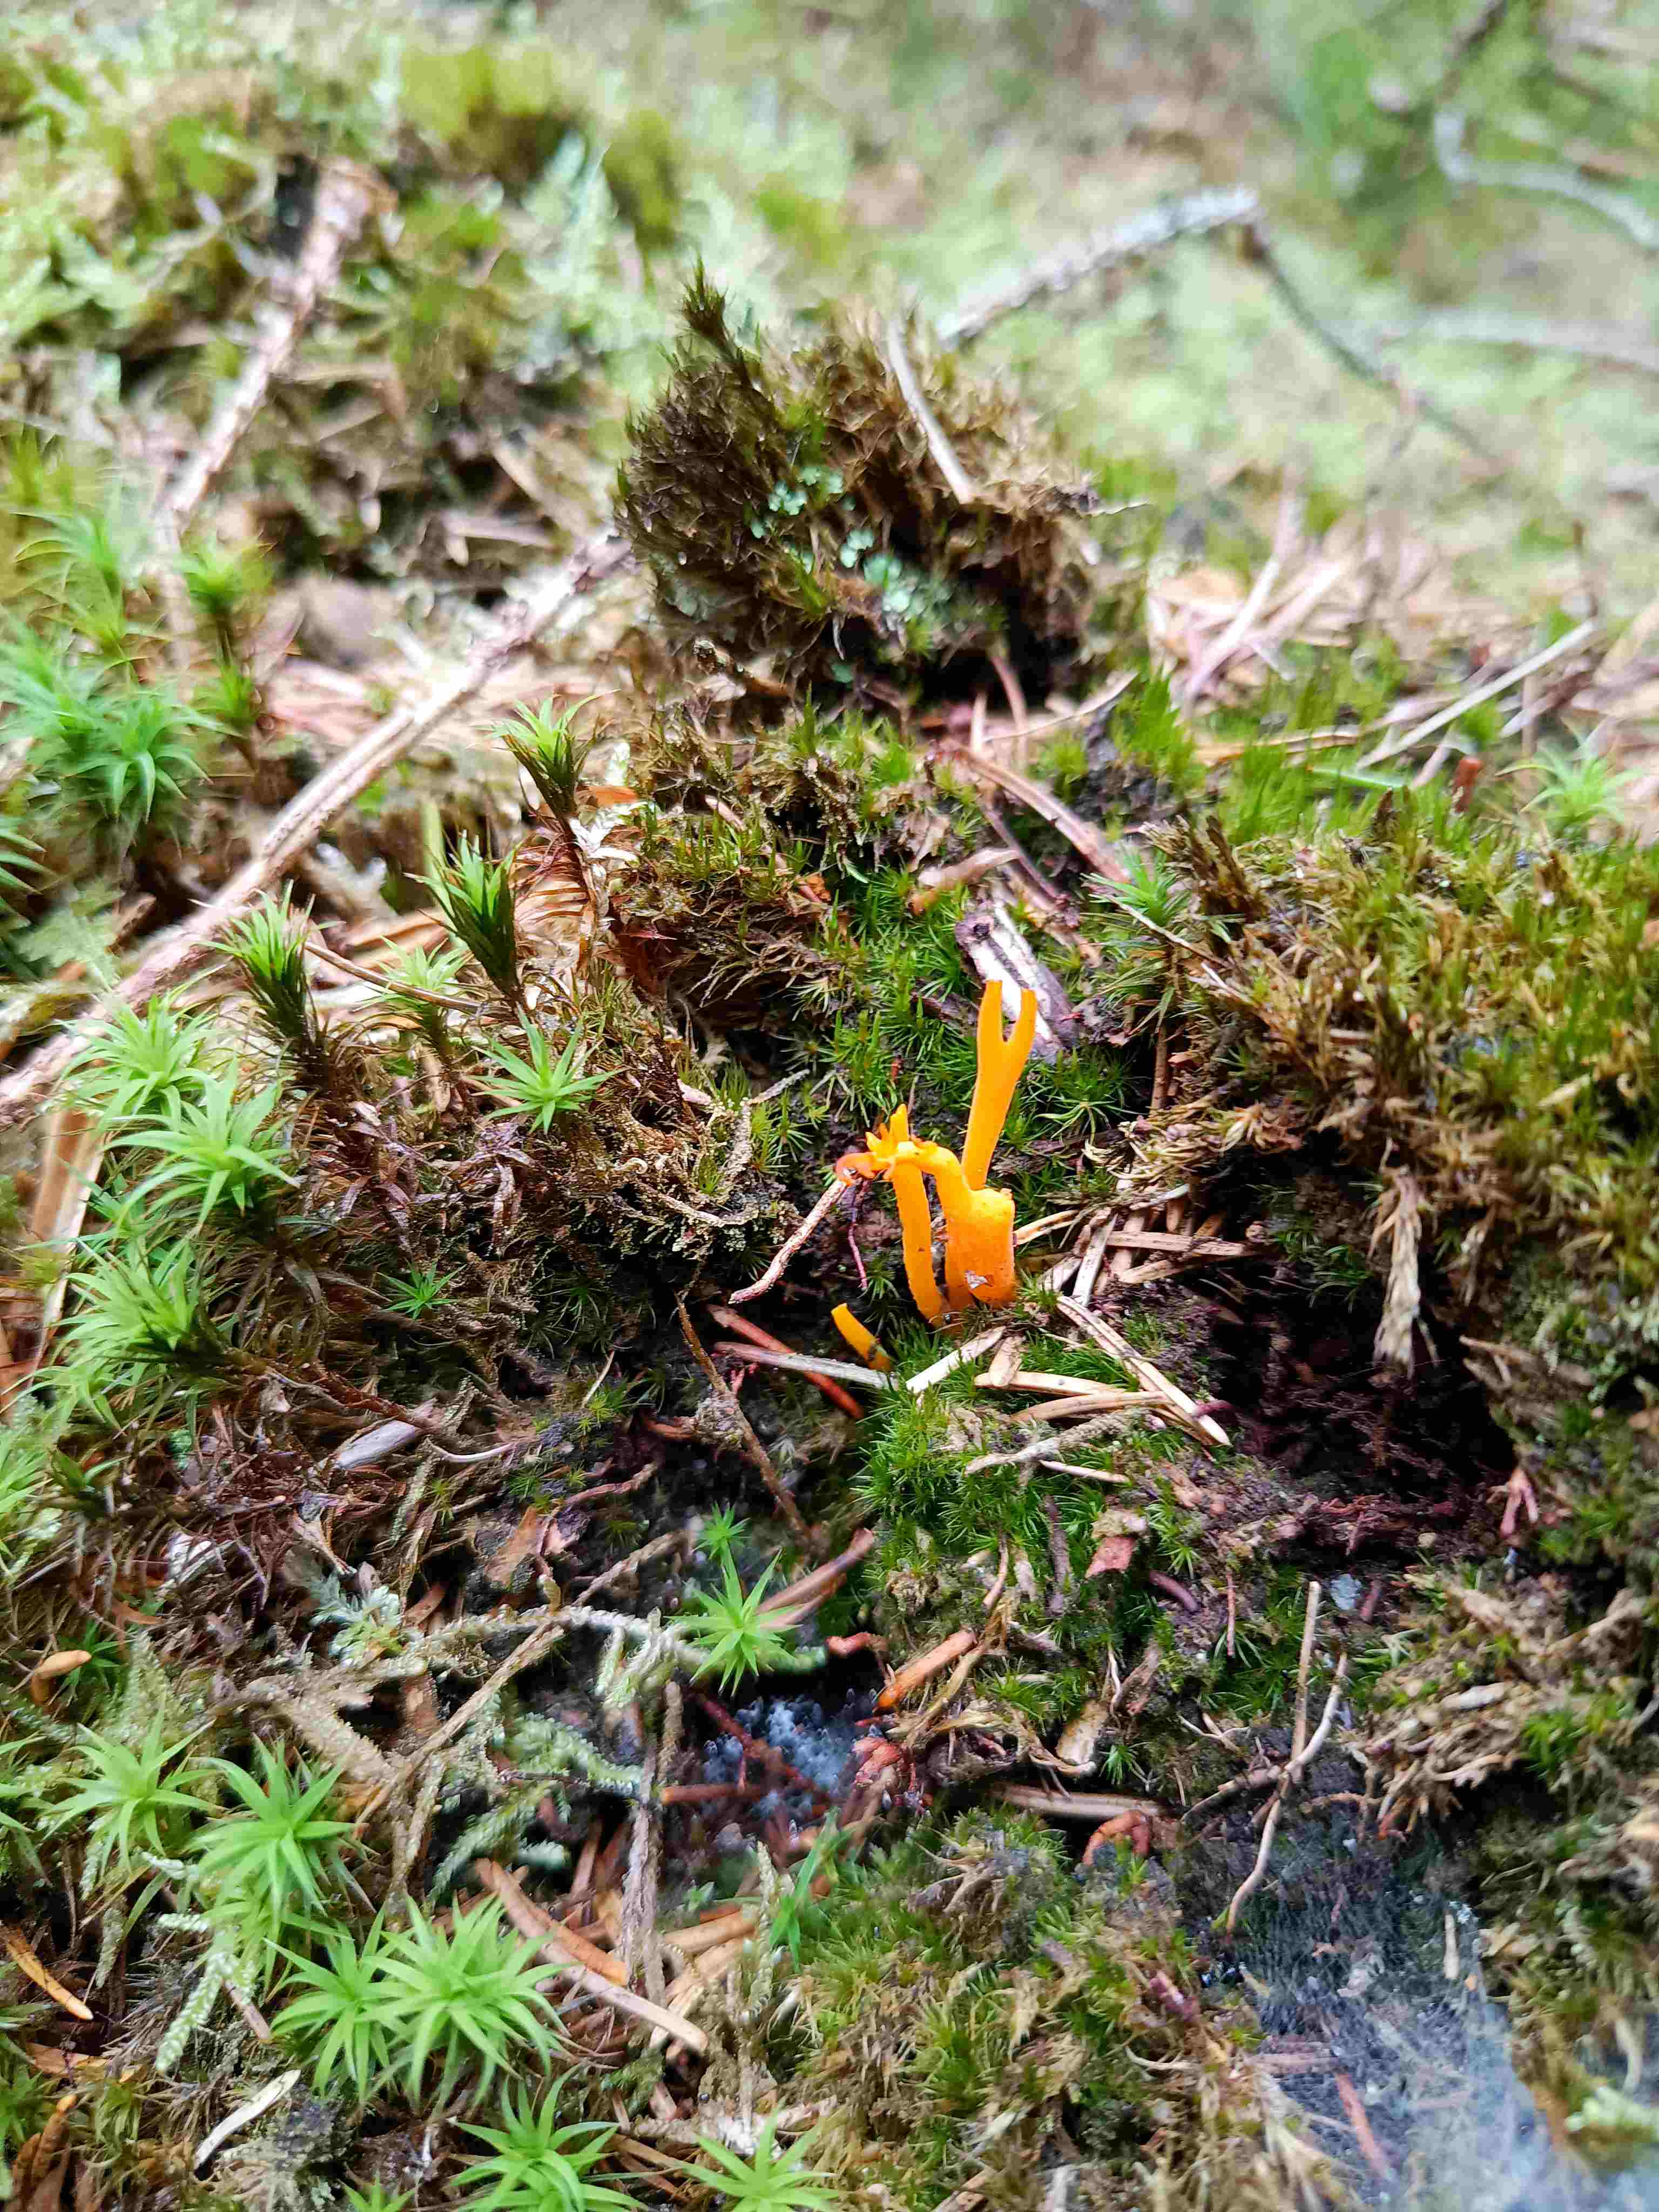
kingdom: Fungi
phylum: Basidiomycota
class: Dacrymycetes
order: Dacrymycetales
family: Dacrymycetaceae
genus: Calocera
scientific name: Calocera viscosa
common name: almindelig guldgaffel
